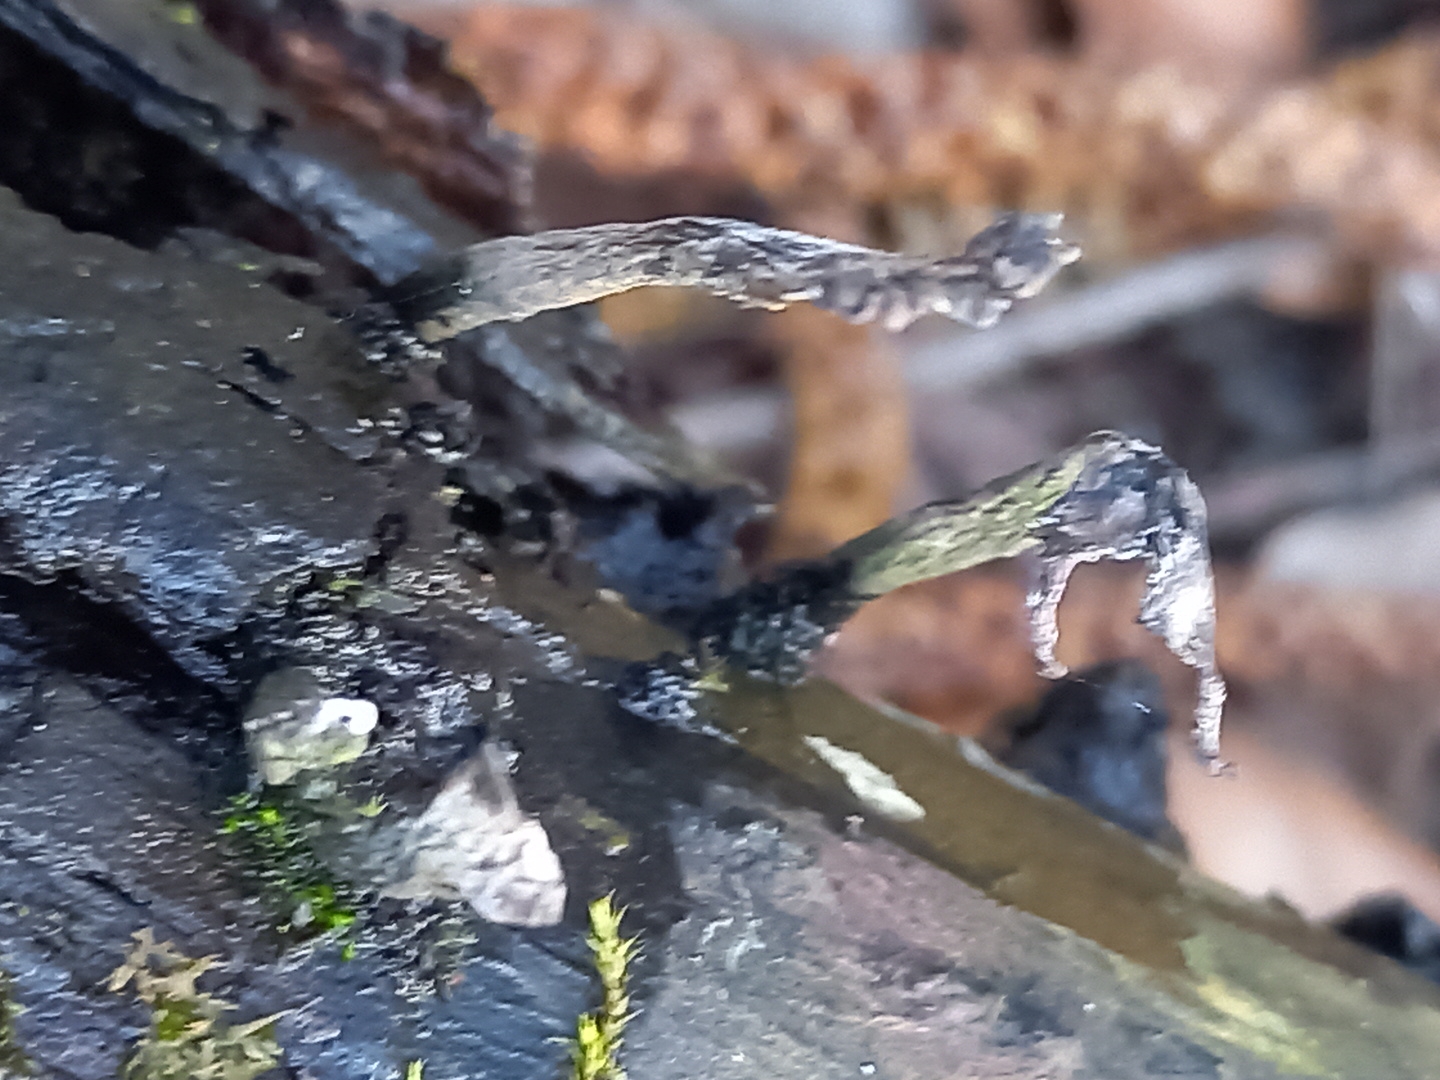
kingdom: Fungi
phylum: Ascomycota
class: Sordariomycetes
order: Xylariales
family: Xylariaceae
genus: Xylaria
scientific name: Xylaria hypoxylon
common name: grenet stødsvamp
